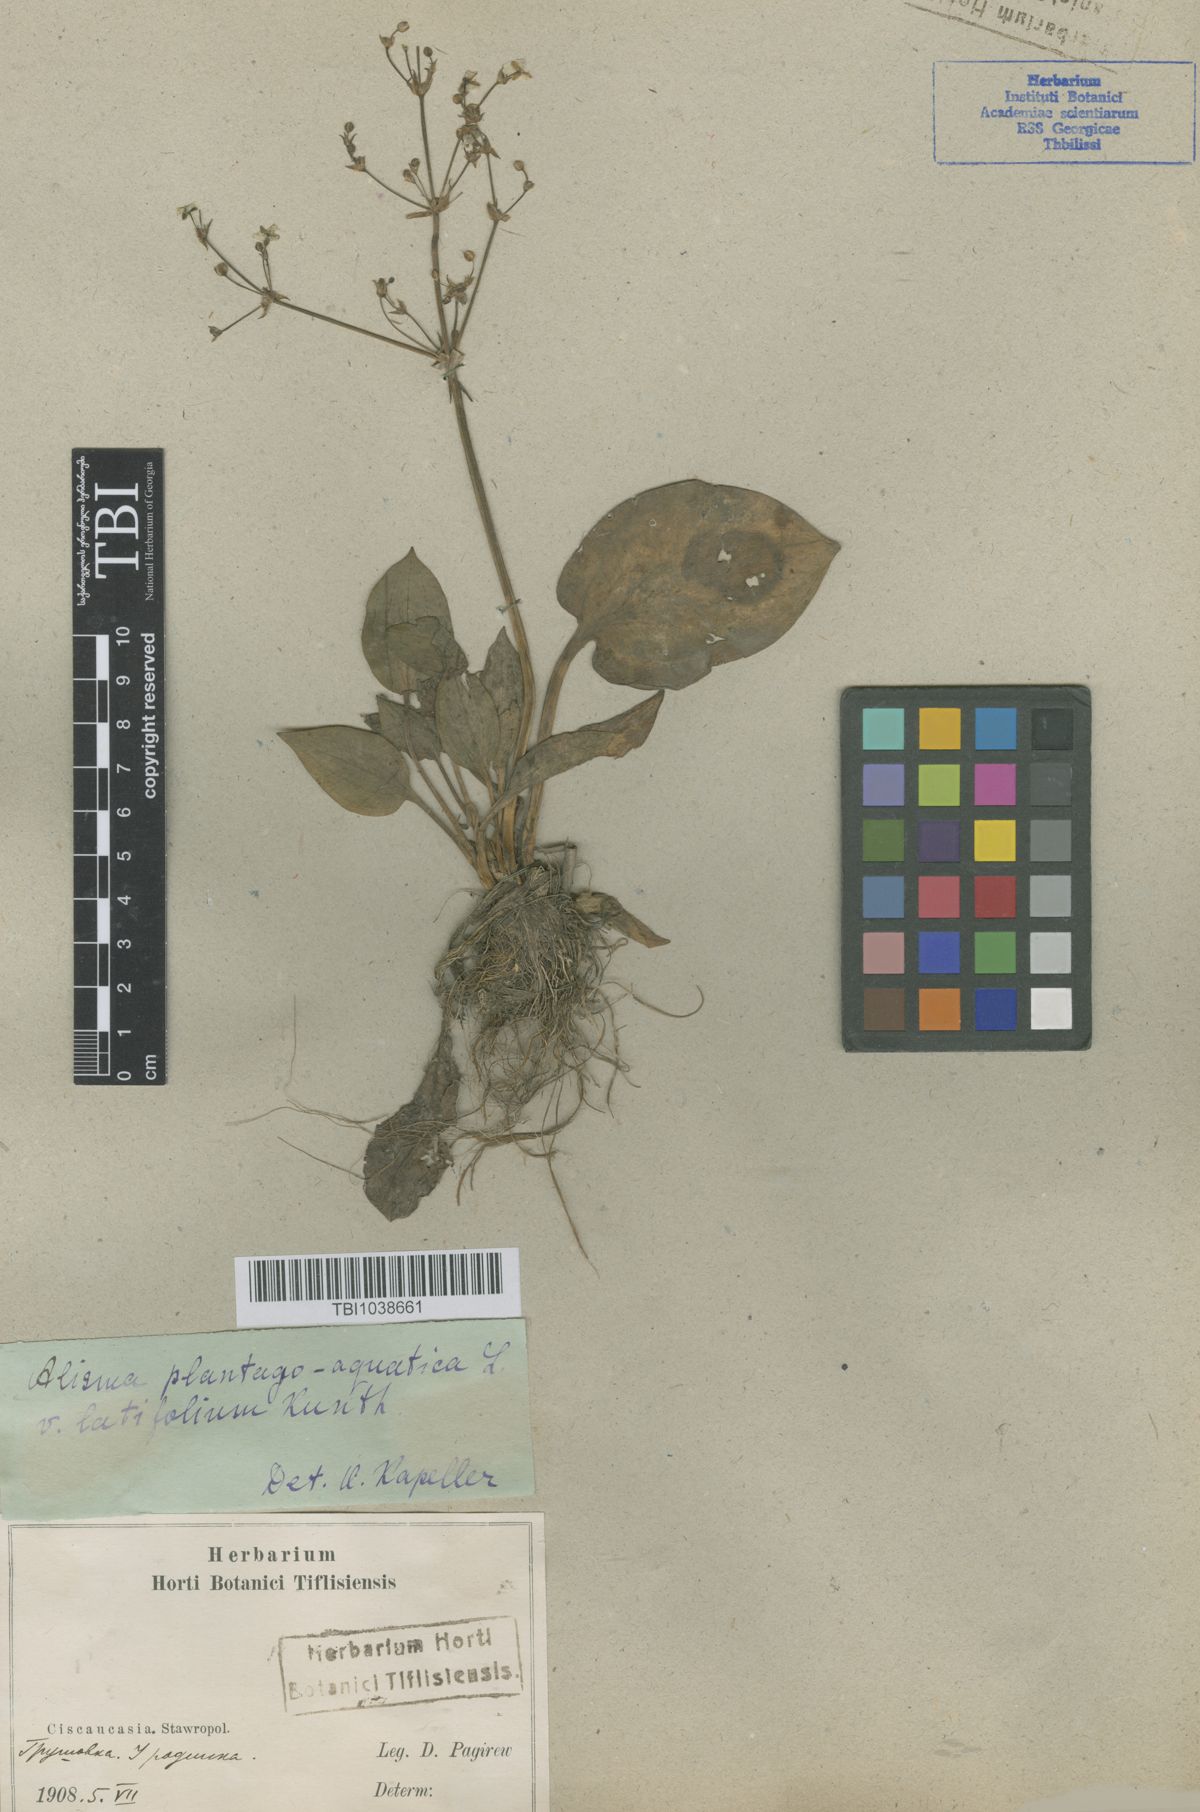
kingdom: Plantae
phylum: Tracheophyta
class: Liliopsida
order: Alismatales
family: Alismataceae
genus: Alisma
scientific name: Alisma plantago-aquatica
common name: Water-plantain
